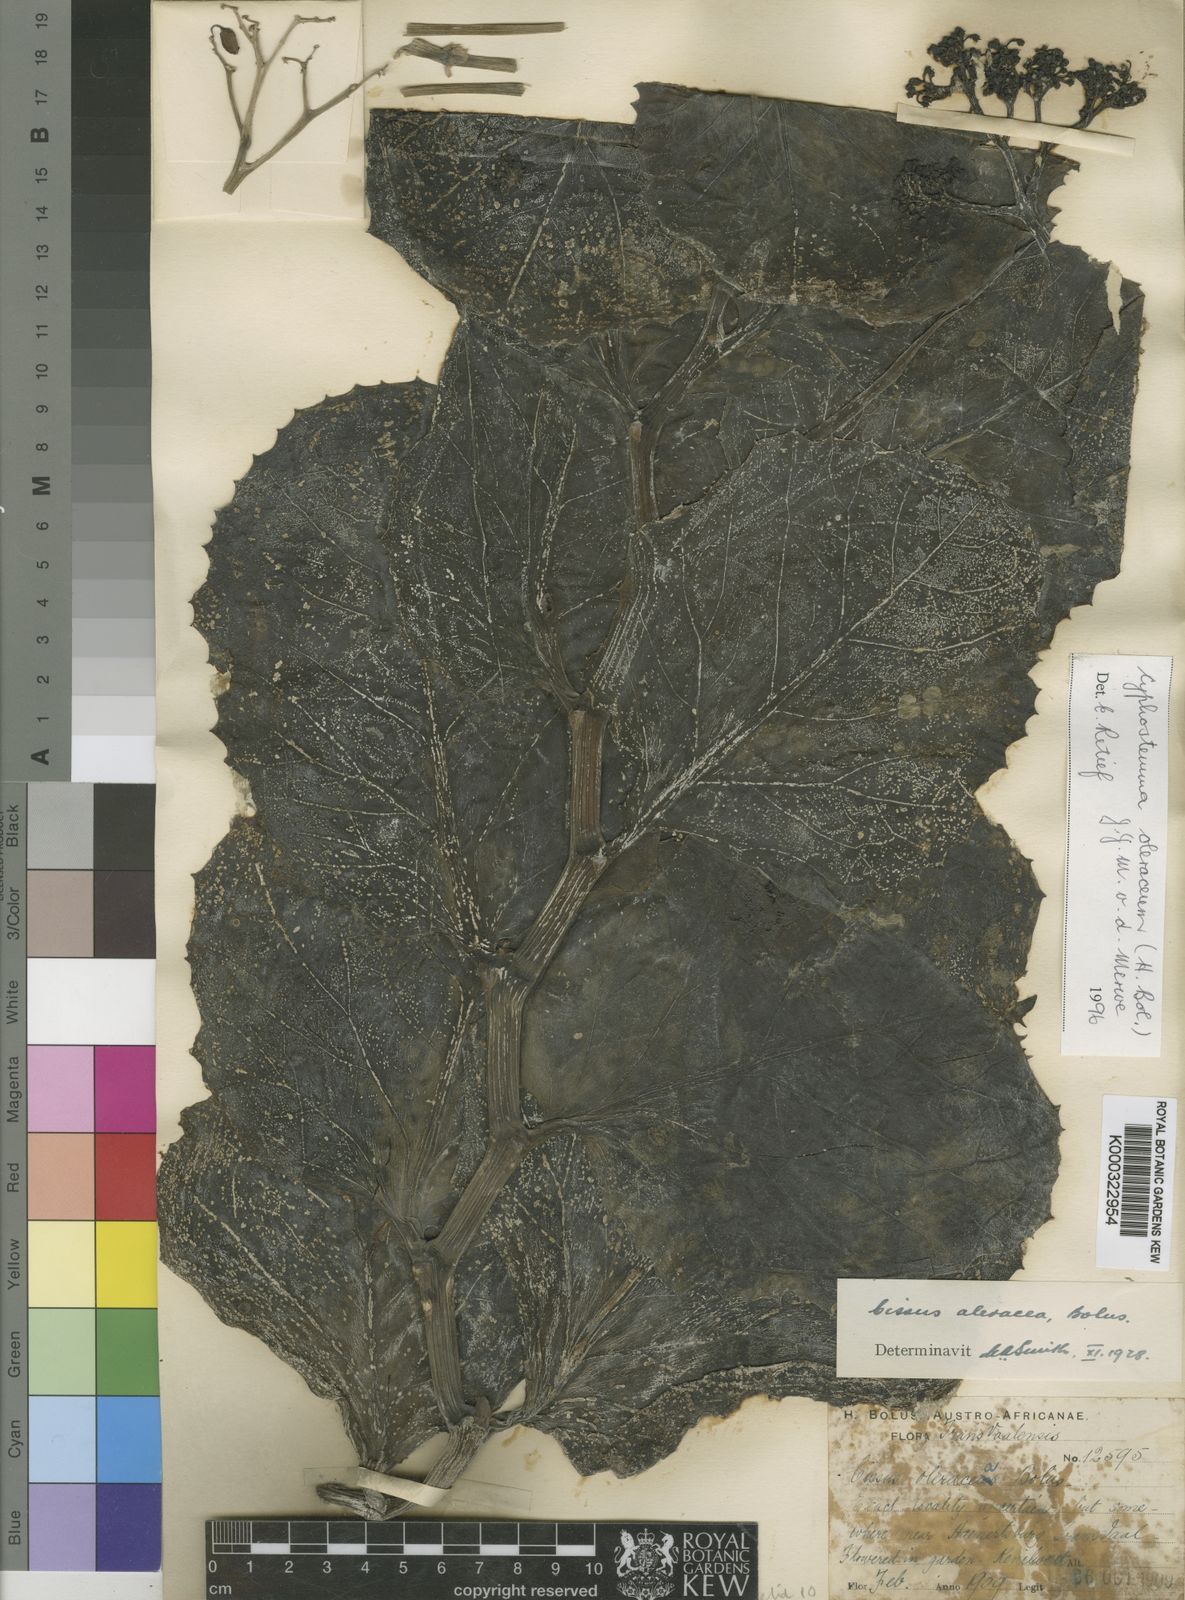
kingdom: Plantae
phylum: Tracheophyta
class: Magnoliopsida
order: Vitales
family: Vitaceae
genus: Cyphostemma
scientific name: Cyphostemma oleraceum
